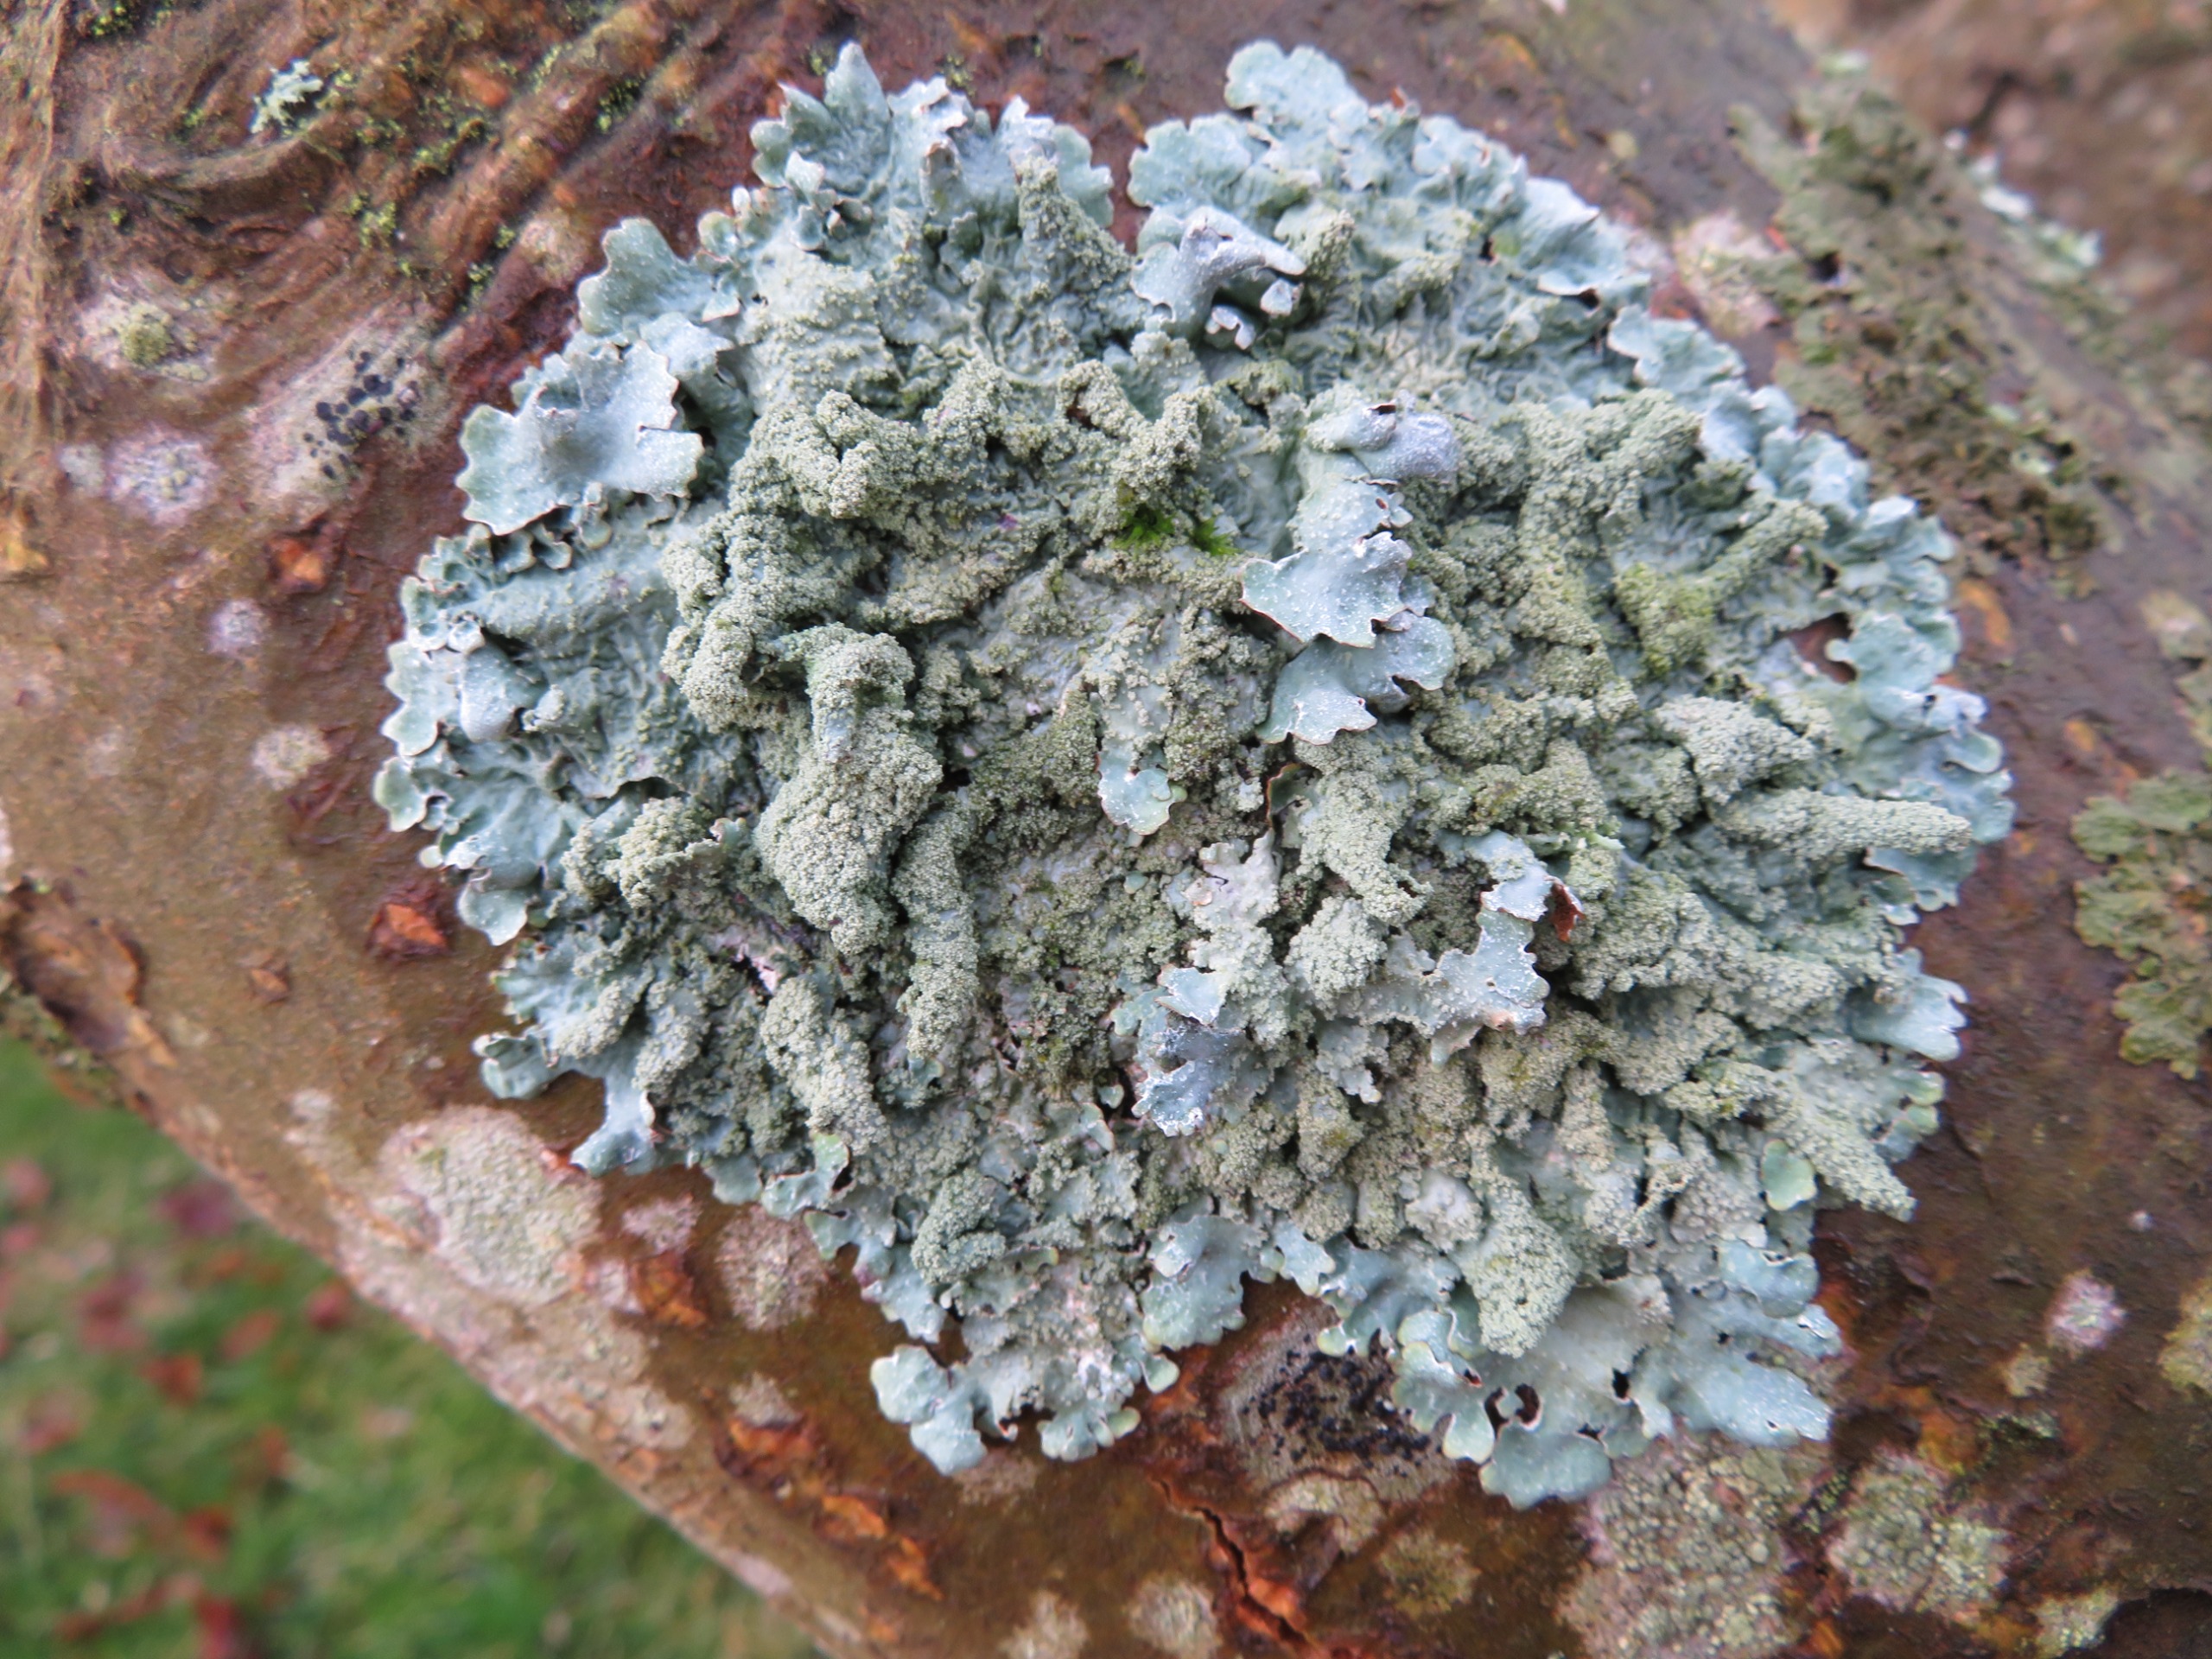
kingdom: Fungi
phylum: Ascomycota
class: Lecanoromycetes
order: Lecanorales
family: Parmeliaceae
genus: Parmelia
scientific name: Parmelia submontana
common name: Langlobet skållav
